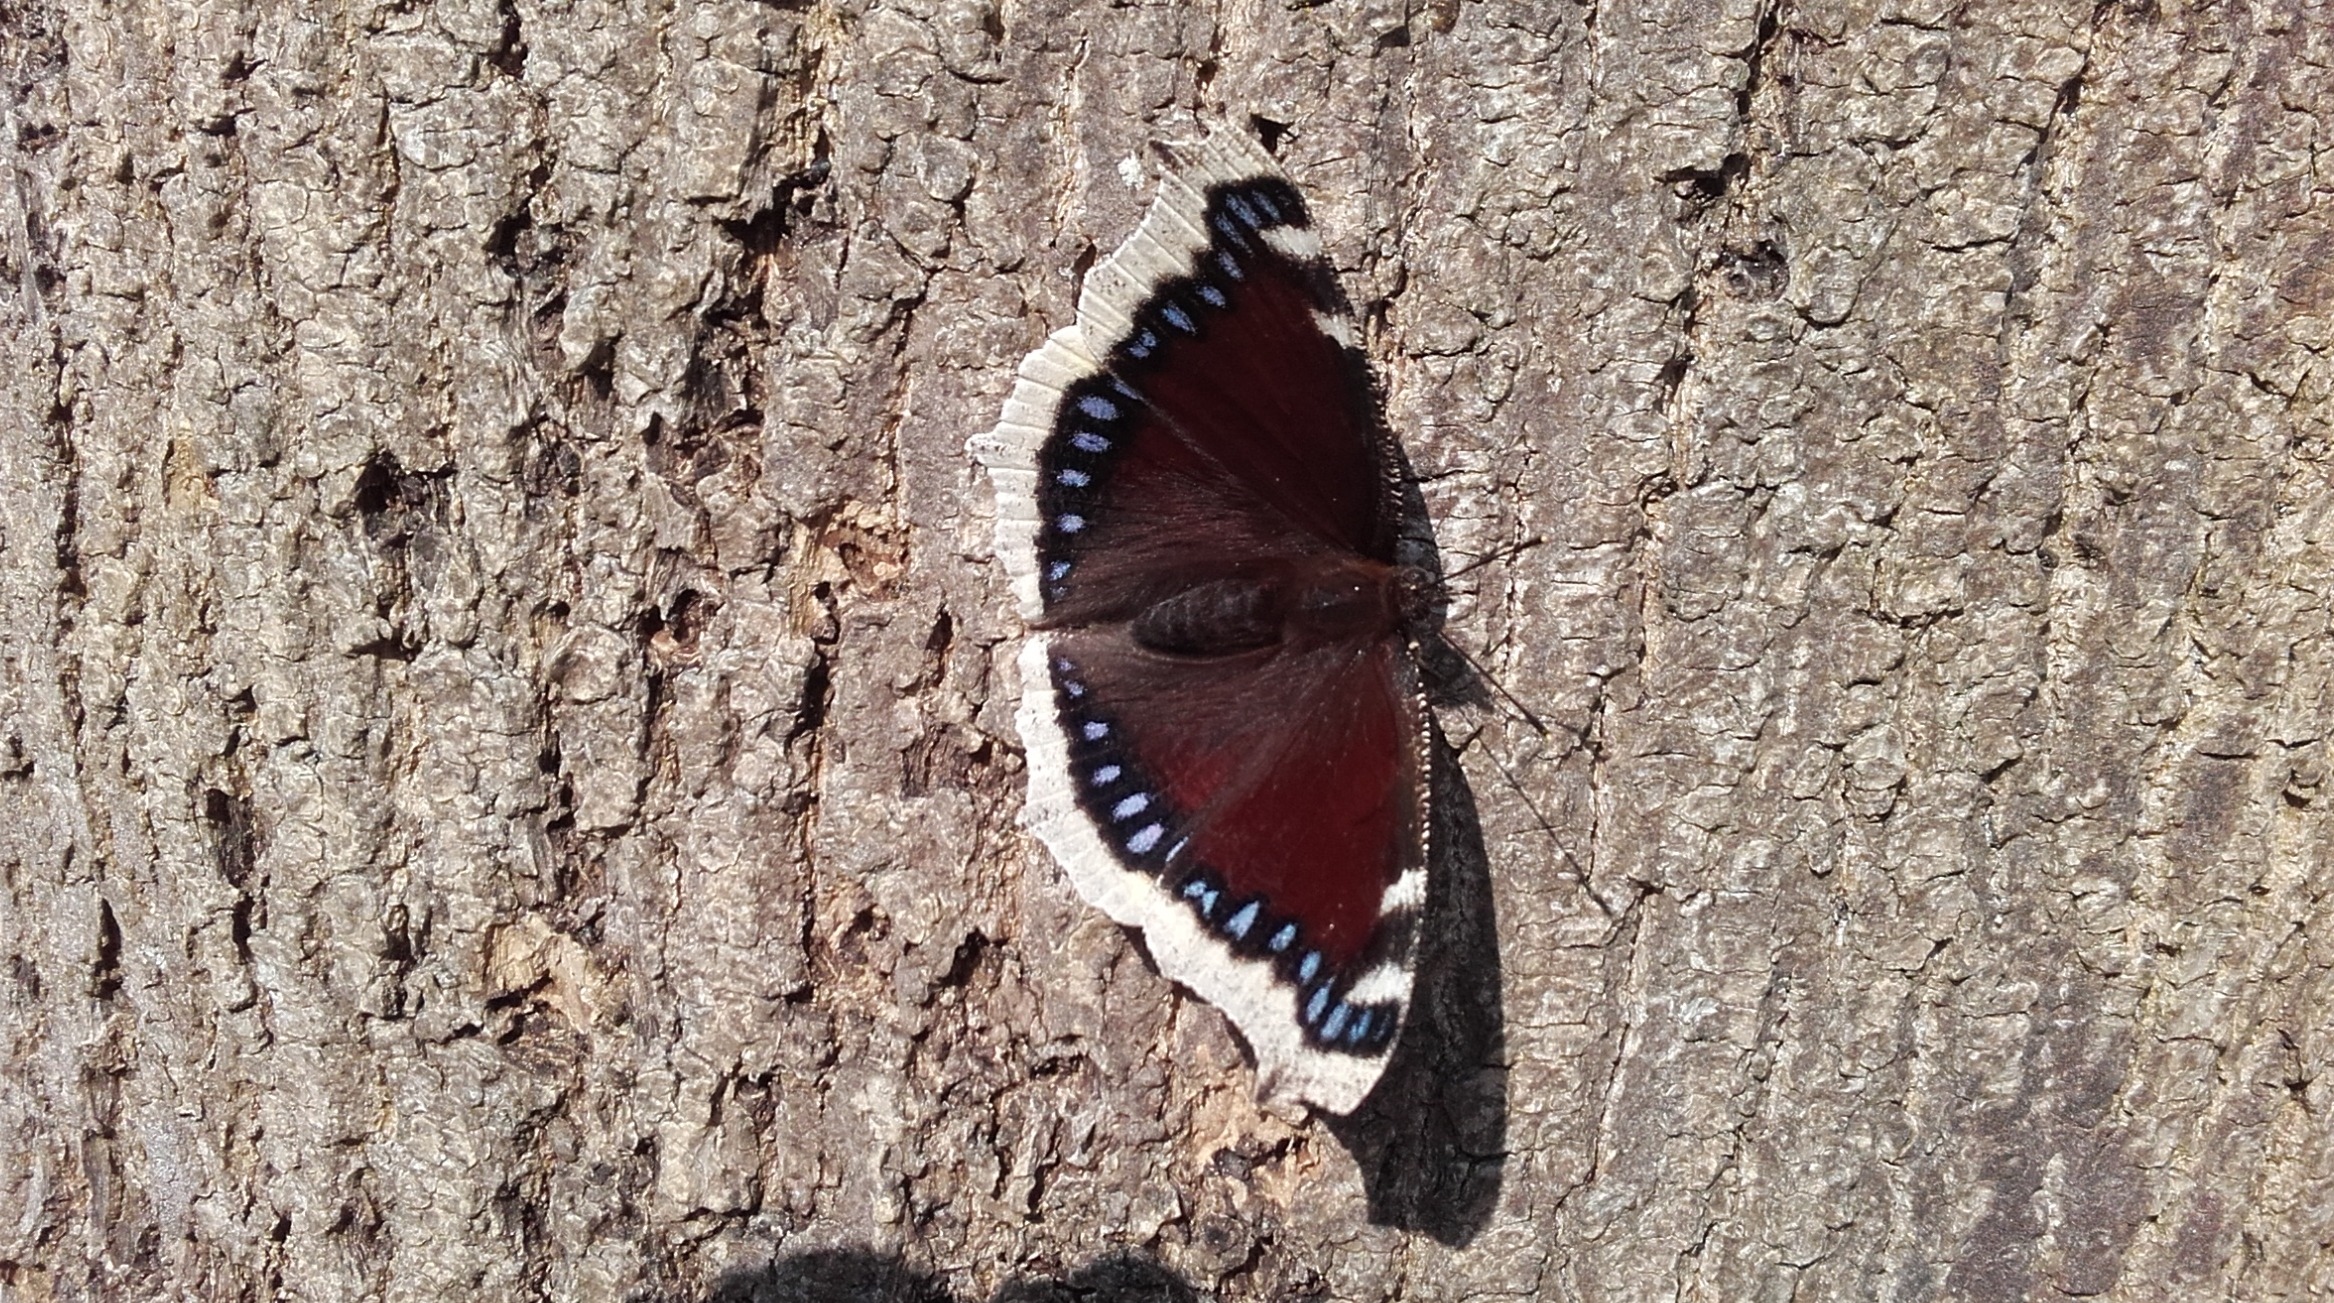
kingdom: Animalia
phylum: Arthropoda
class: Insecta
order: Lepidoptera
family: Nymphalidae
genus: Nymphalis
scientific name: Nymphalis antiopa
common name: Sørgekåbe
